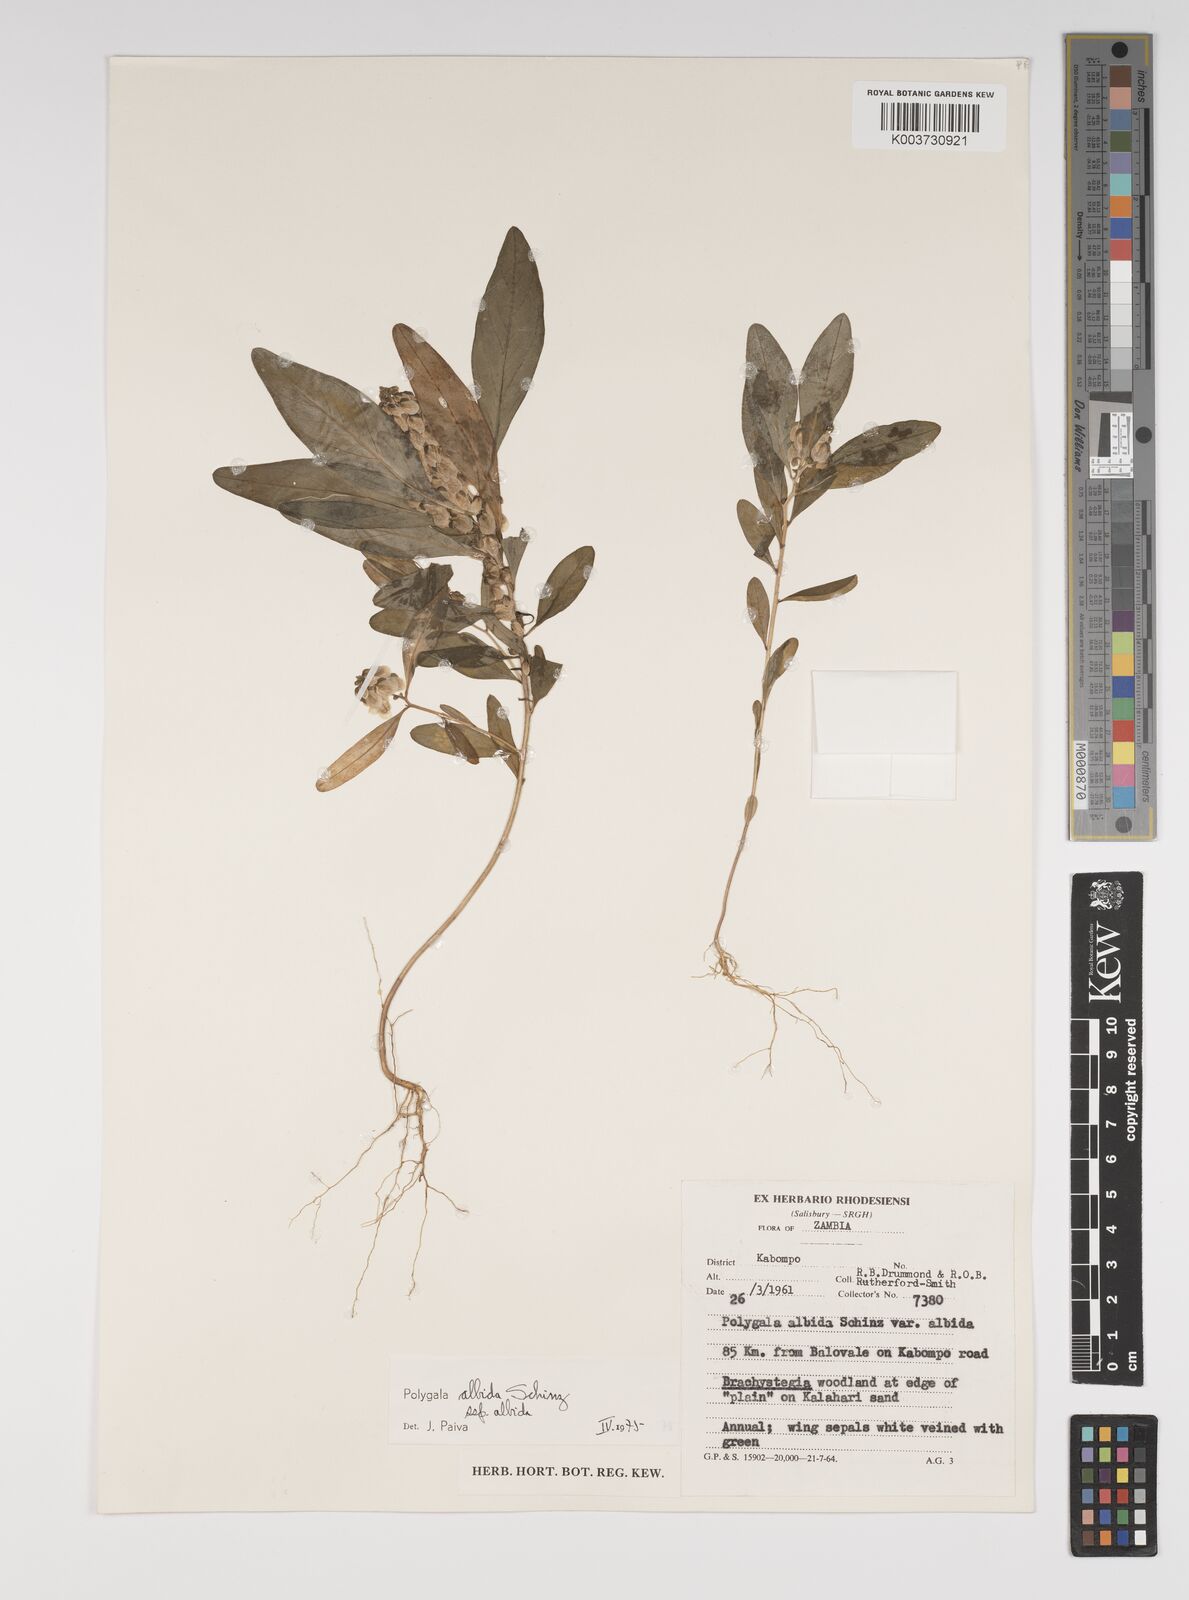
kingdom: Plantae
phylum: Tracheophyta
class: Magnoliopsida
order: Fabales
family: Polygalaceae
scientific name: Polygalaceae
